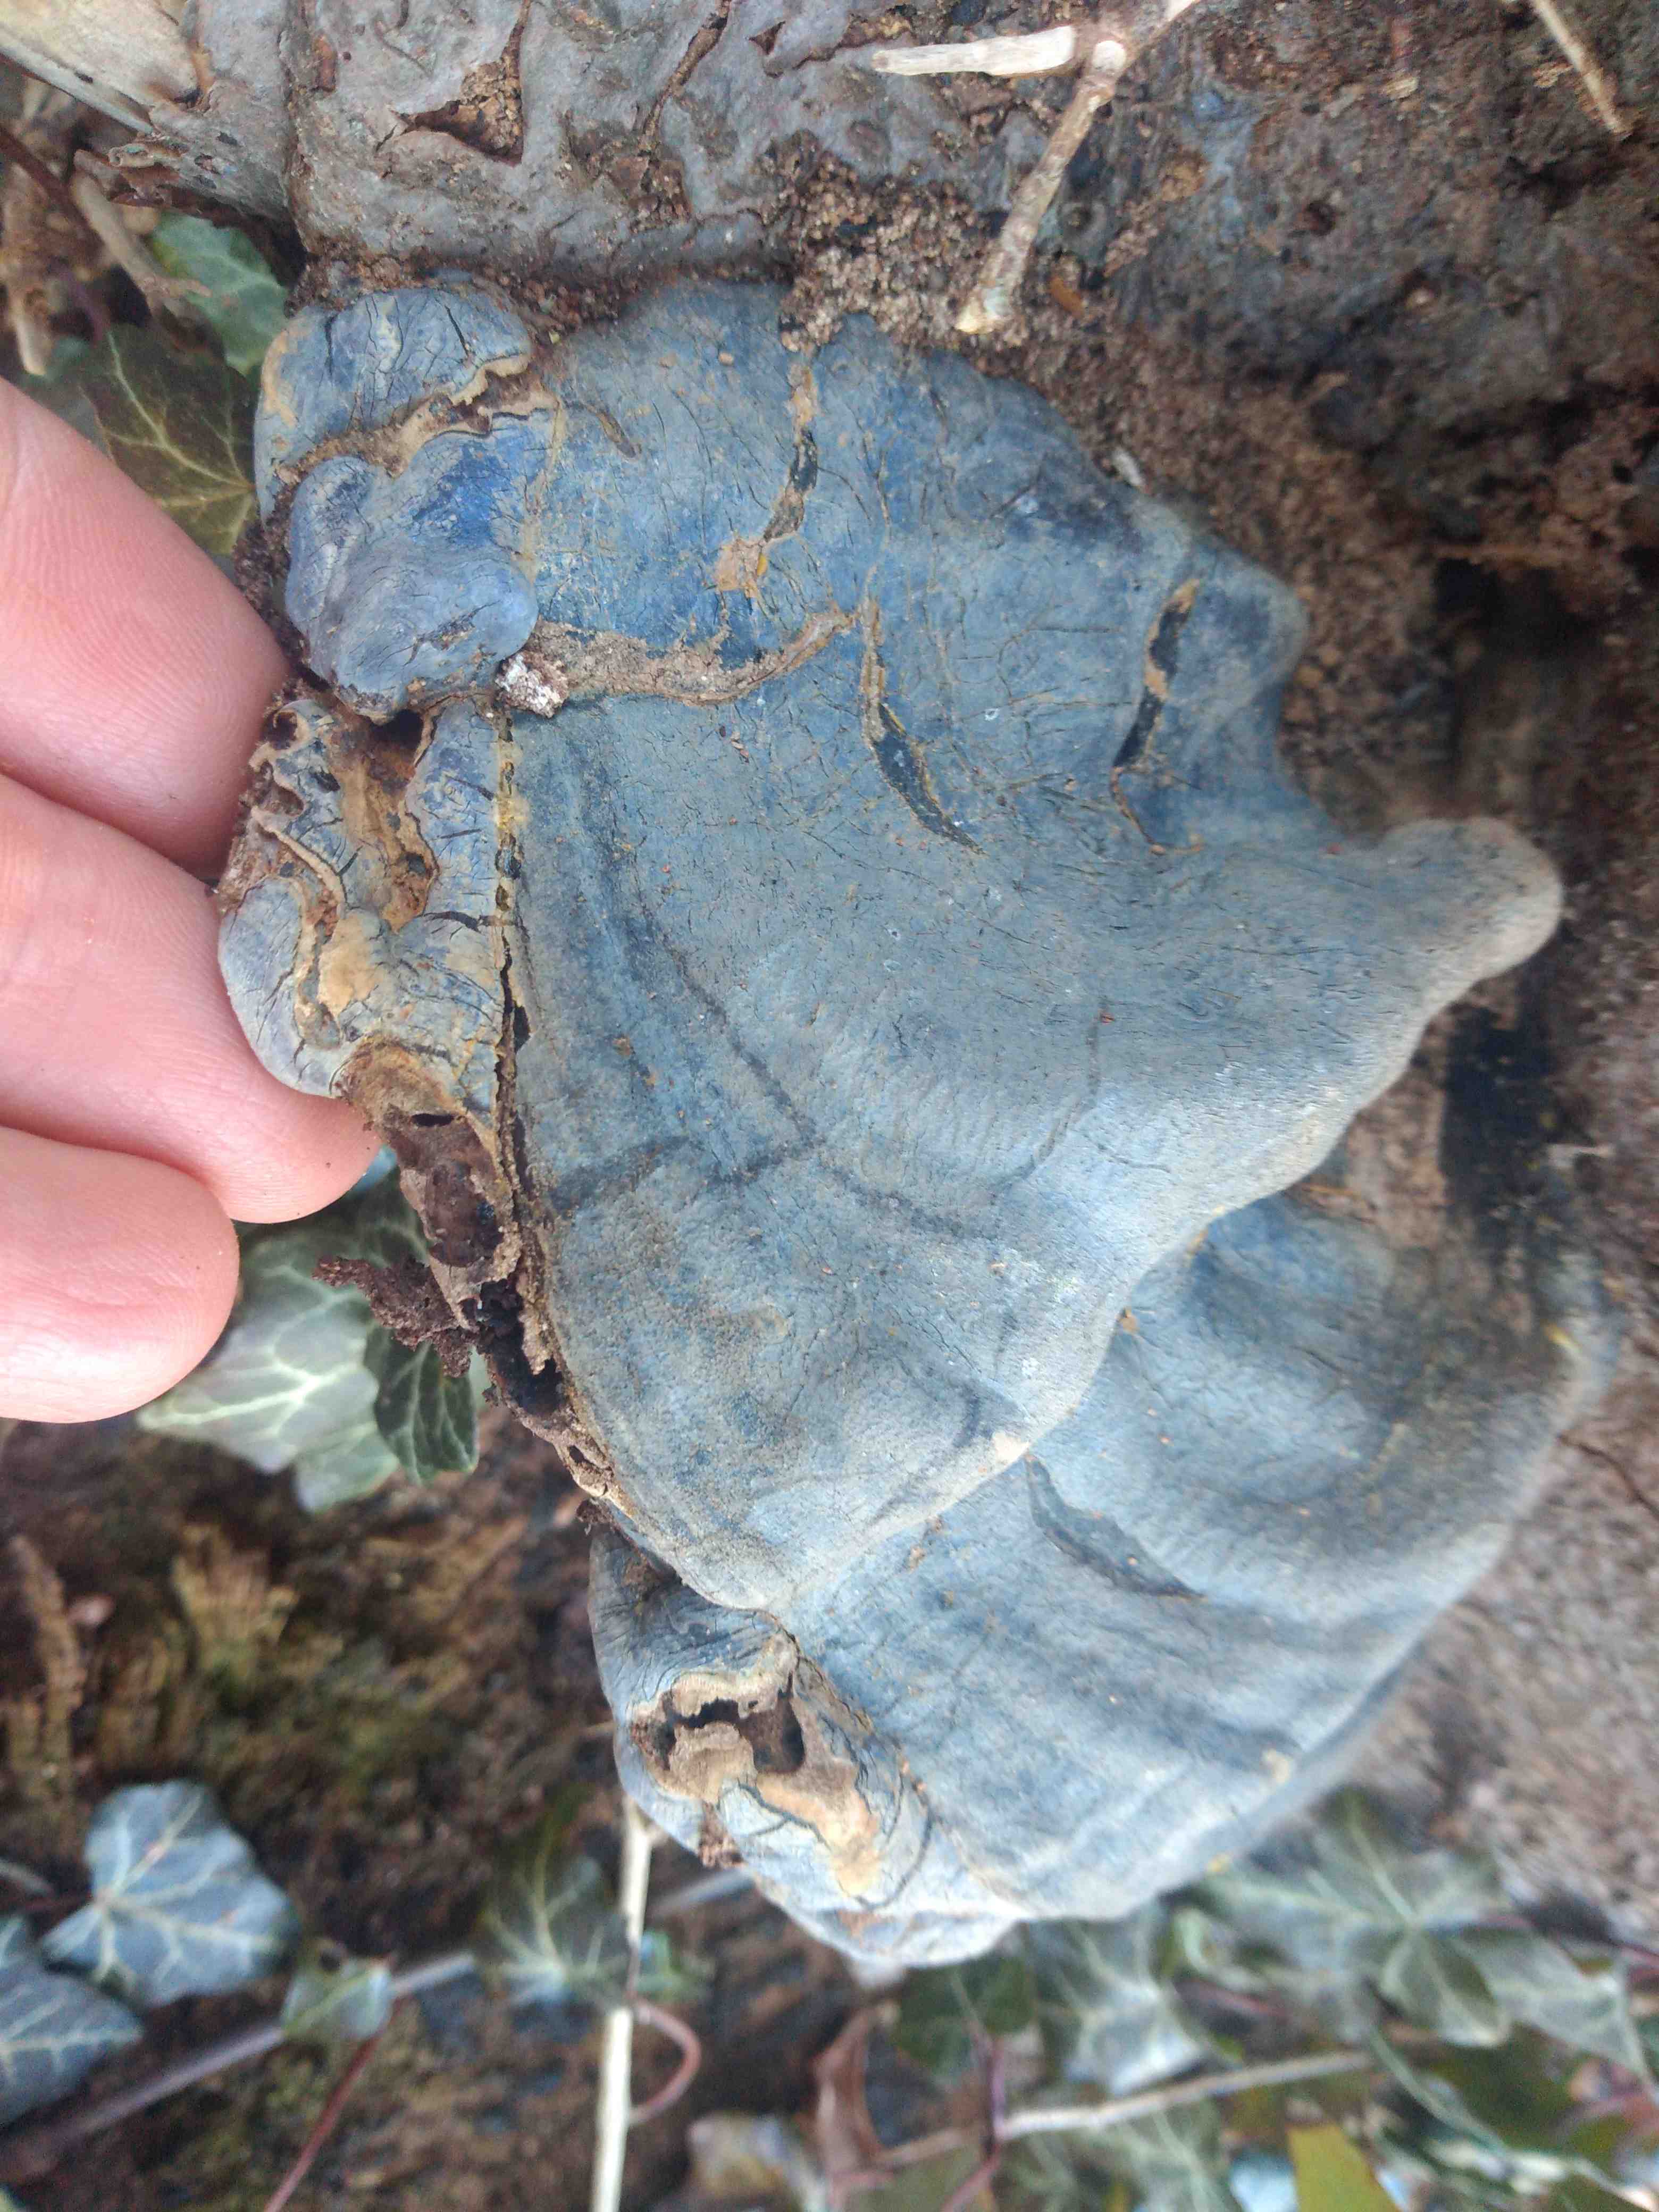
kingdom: Fungi
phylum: Basidiomycota
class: Agaricomycetes
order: Polyporales
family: Polyporaceae
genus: Ganoderma
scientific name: Ganoderma pfeifferi
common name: kobberrød lakporesvamp
